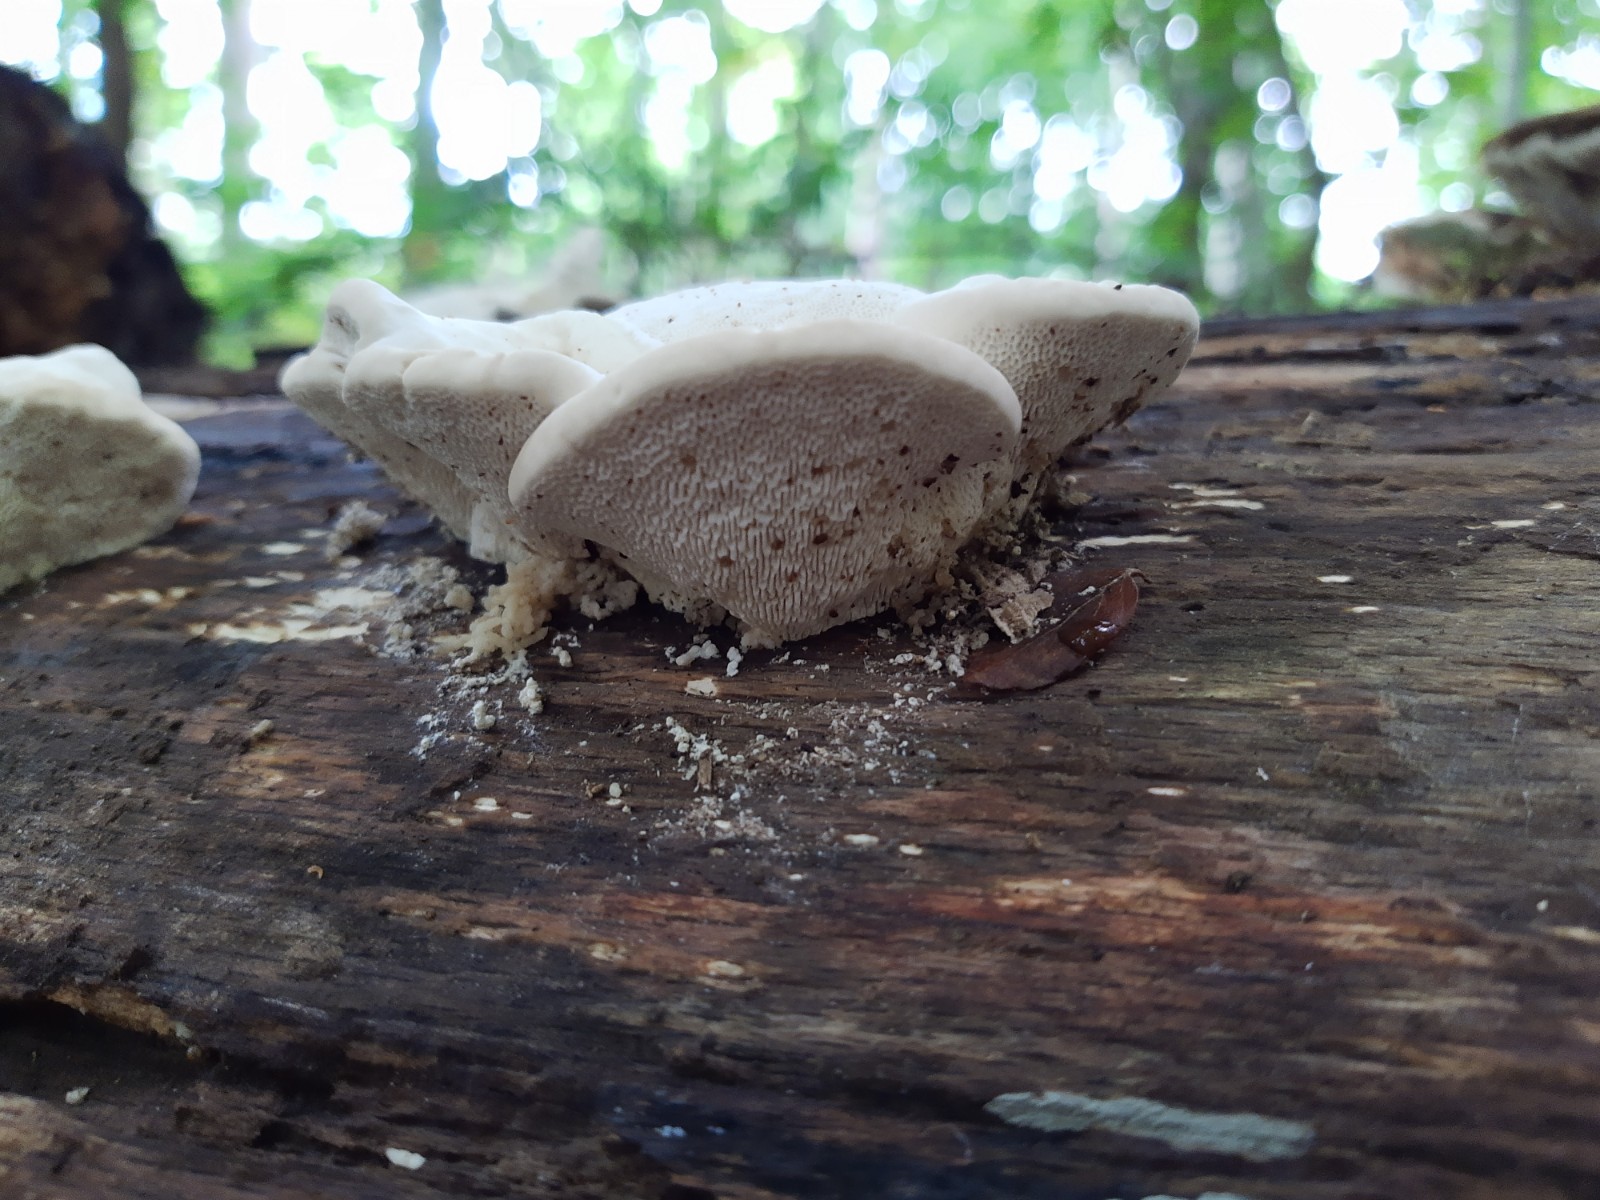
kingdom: Fungi
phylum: Basidiomycota
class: Agaricomycetes
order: Polyporales
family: Polyporaceae
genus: Trametes
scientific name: Trametes gibbosa
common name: puklet læderporesvamp
